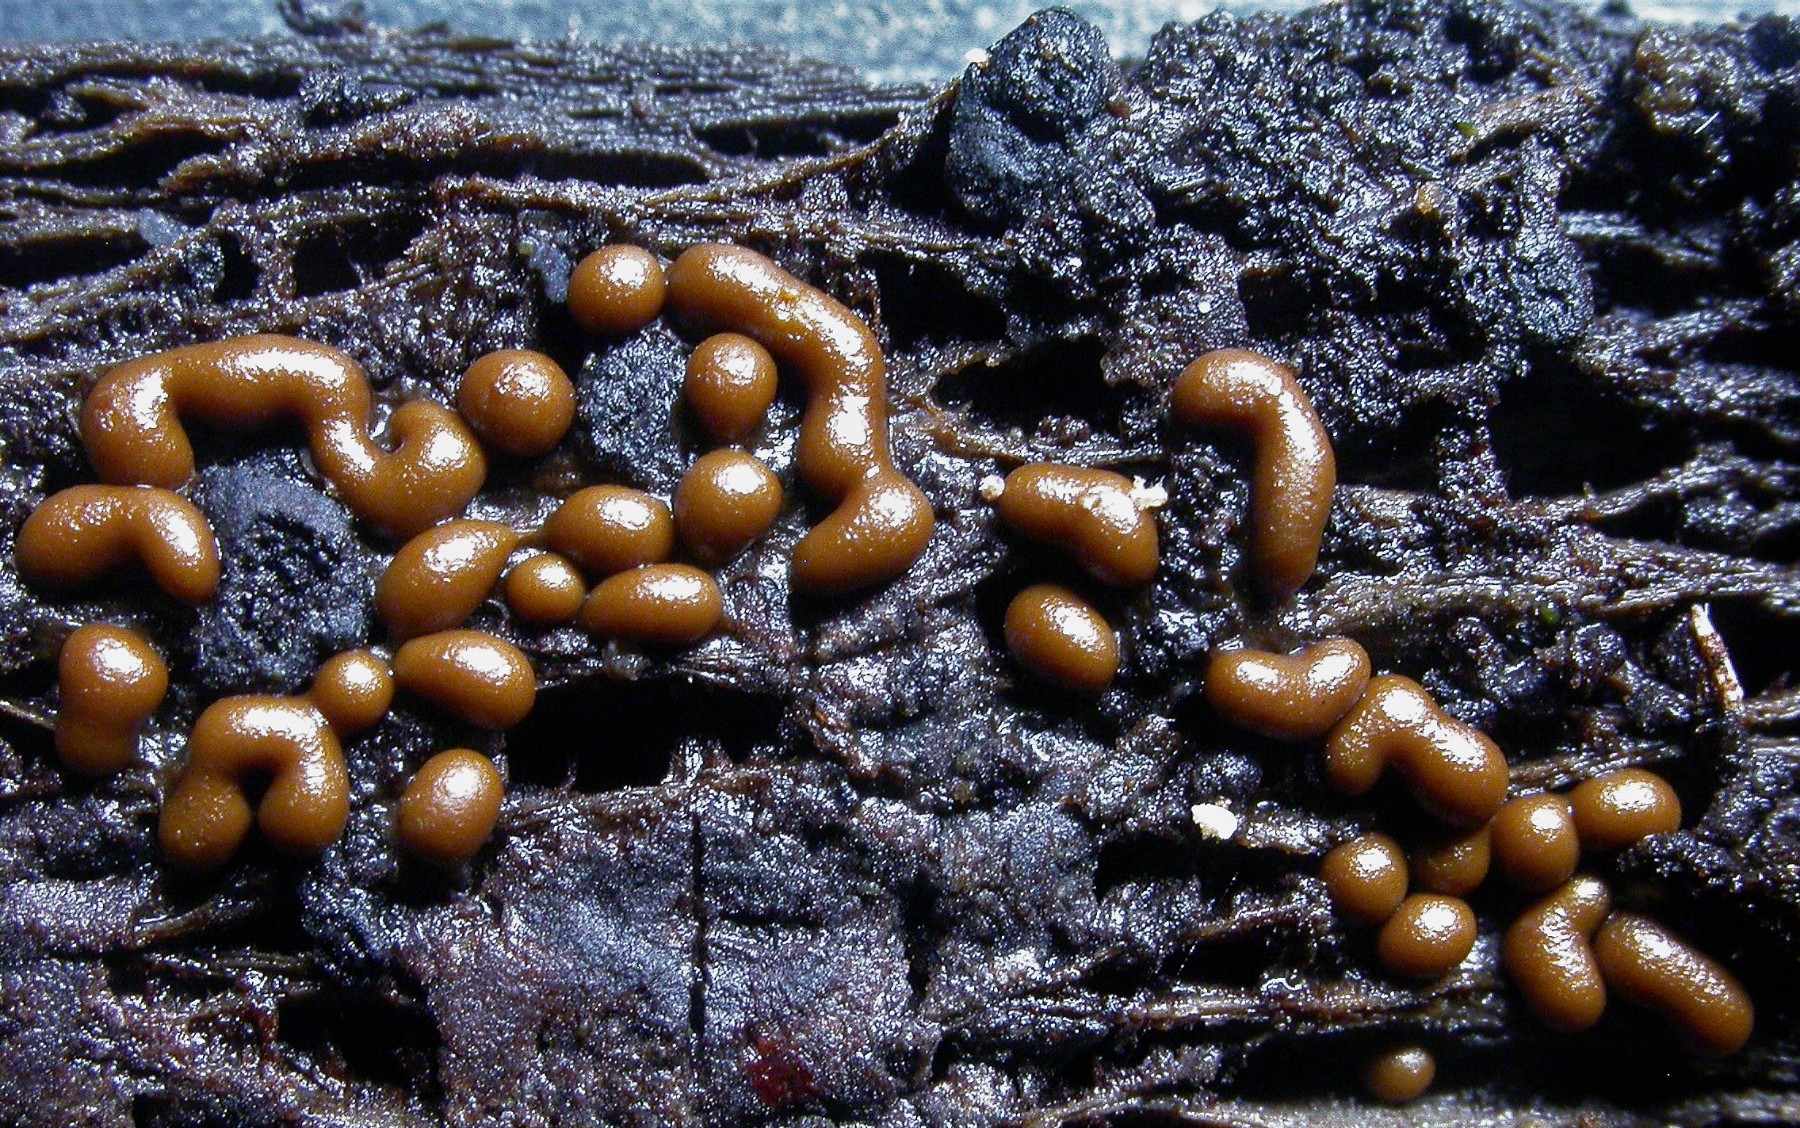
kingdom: Protozoa
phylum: Mycetozoa
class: Myxomycetes
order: Trichiales
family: Trichiaceae
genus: Trichia
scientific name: Trichia contorta
